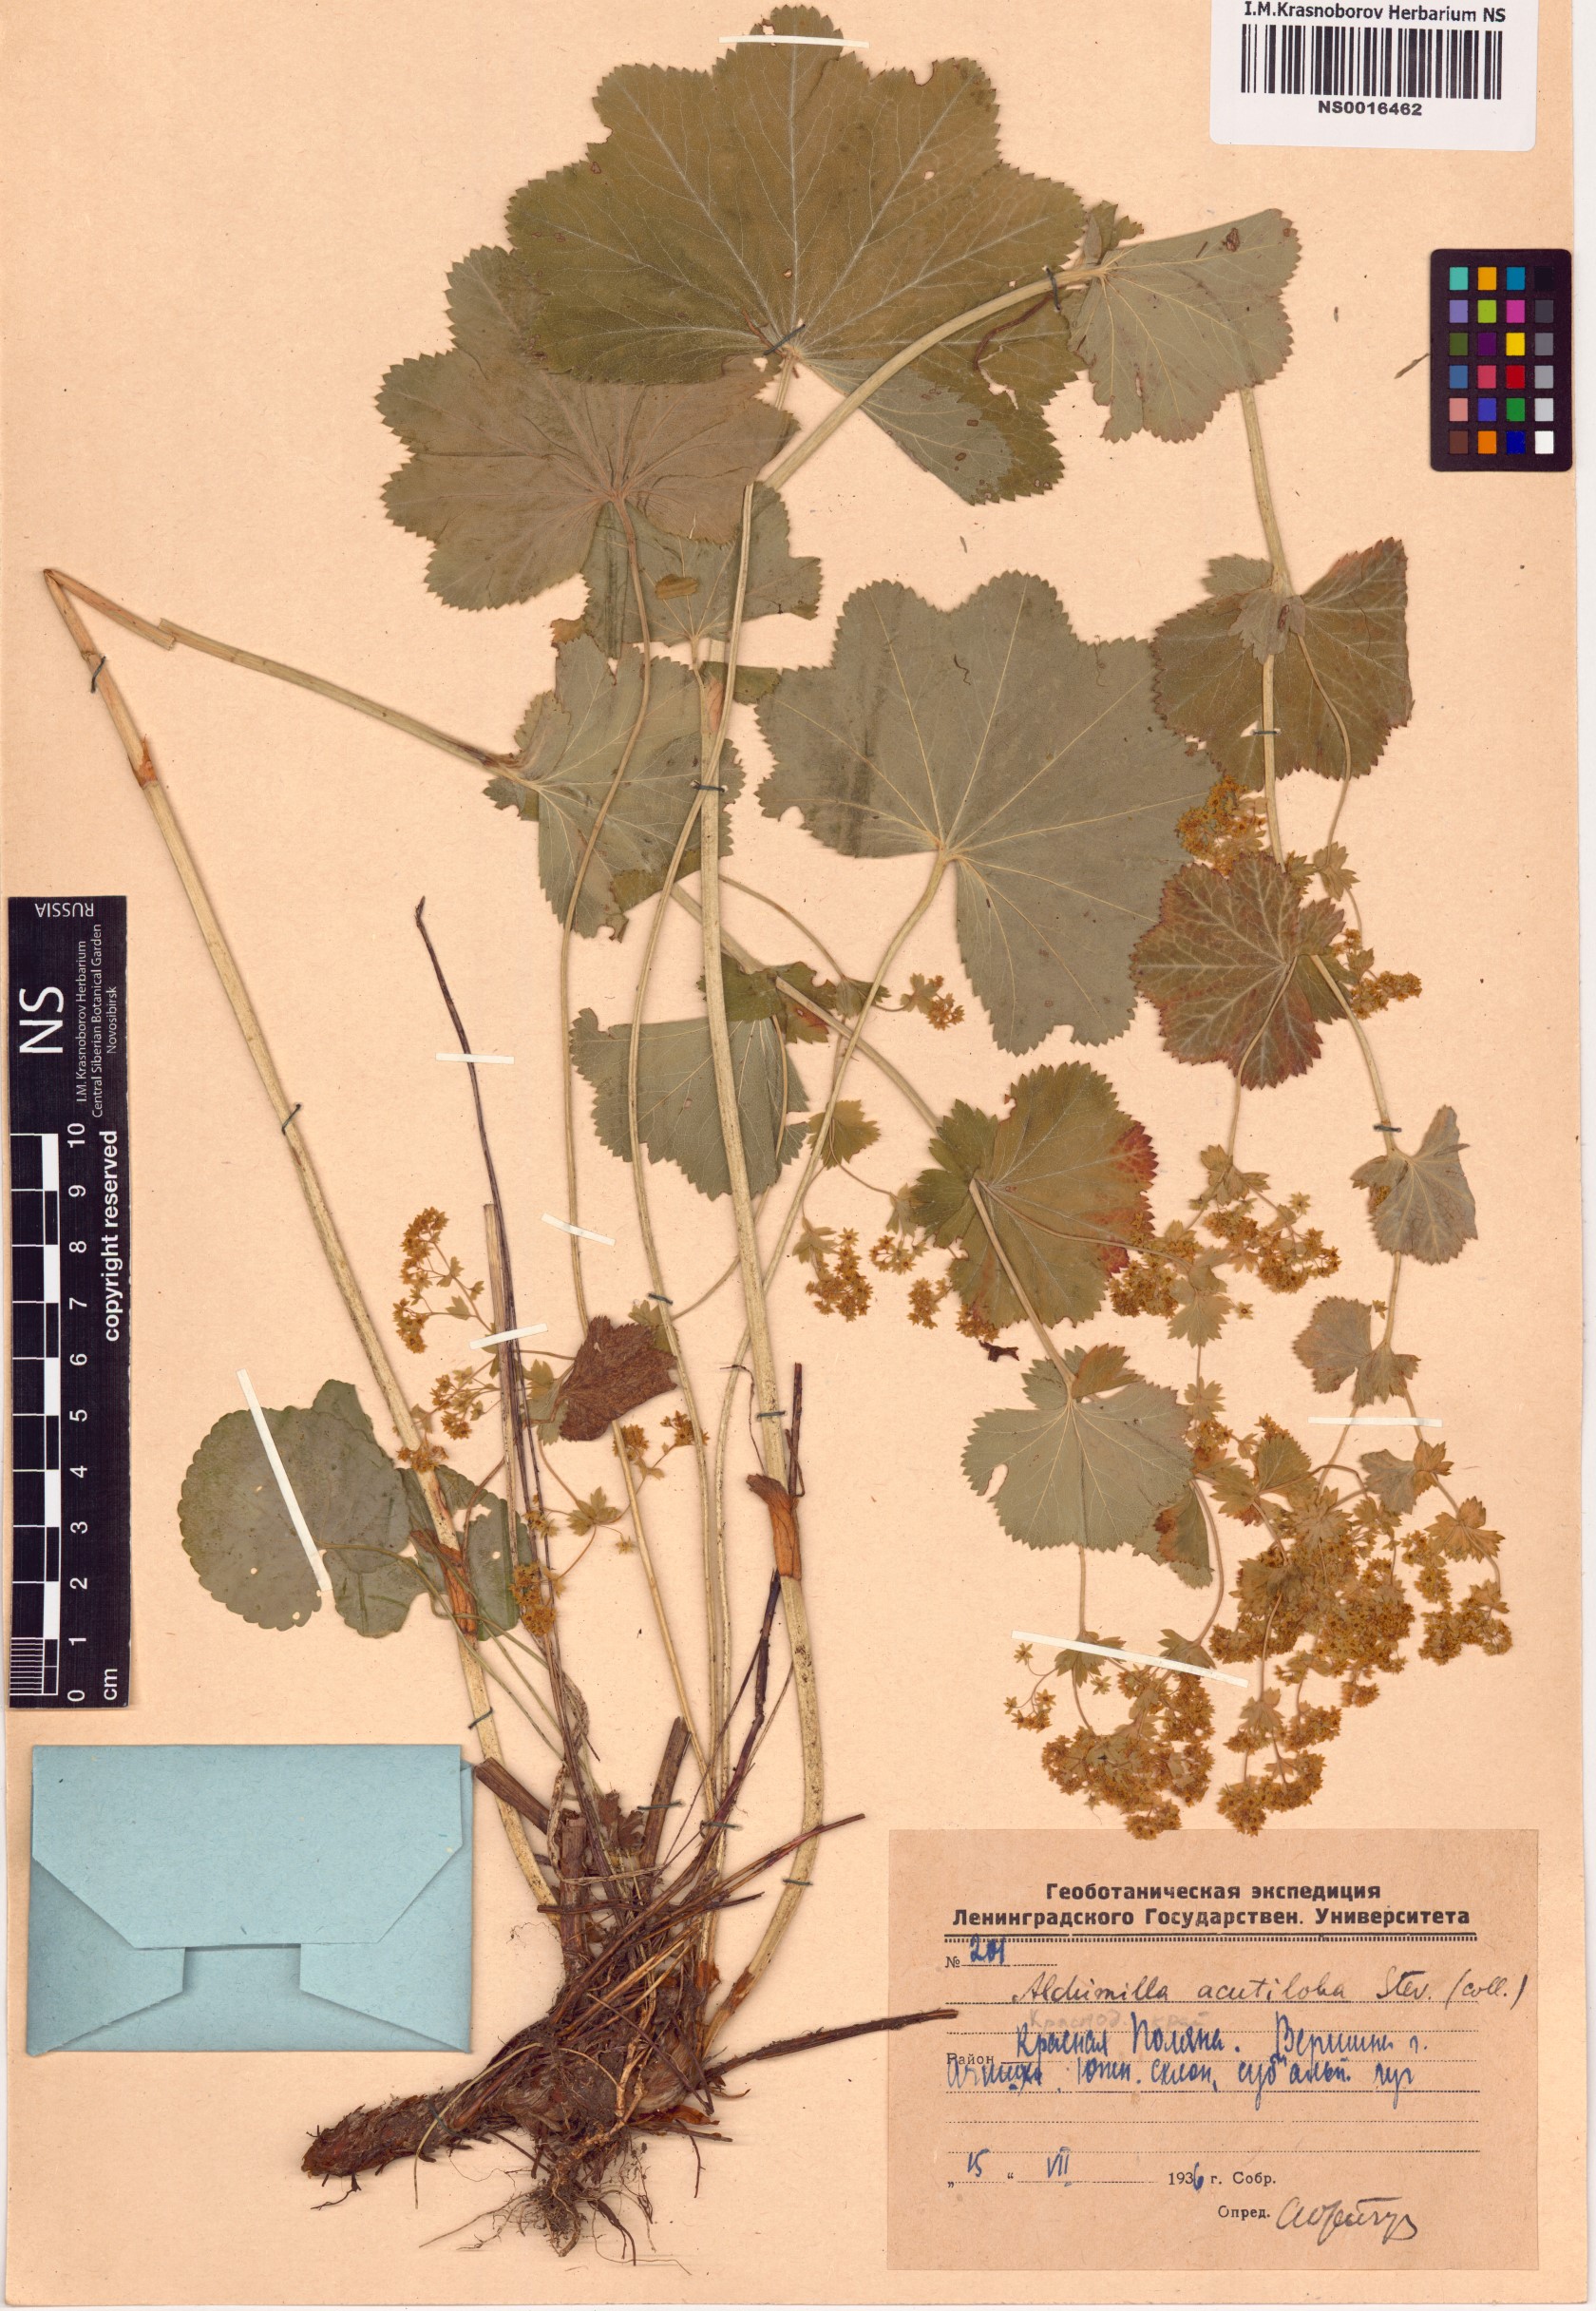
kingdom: Plantae
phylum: Tracheophyta
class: Magnoliopsida
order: Rosales
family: Rosaceae
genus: Alchemilla
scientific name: Alchemilla mollis
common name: Lady's-mantle
